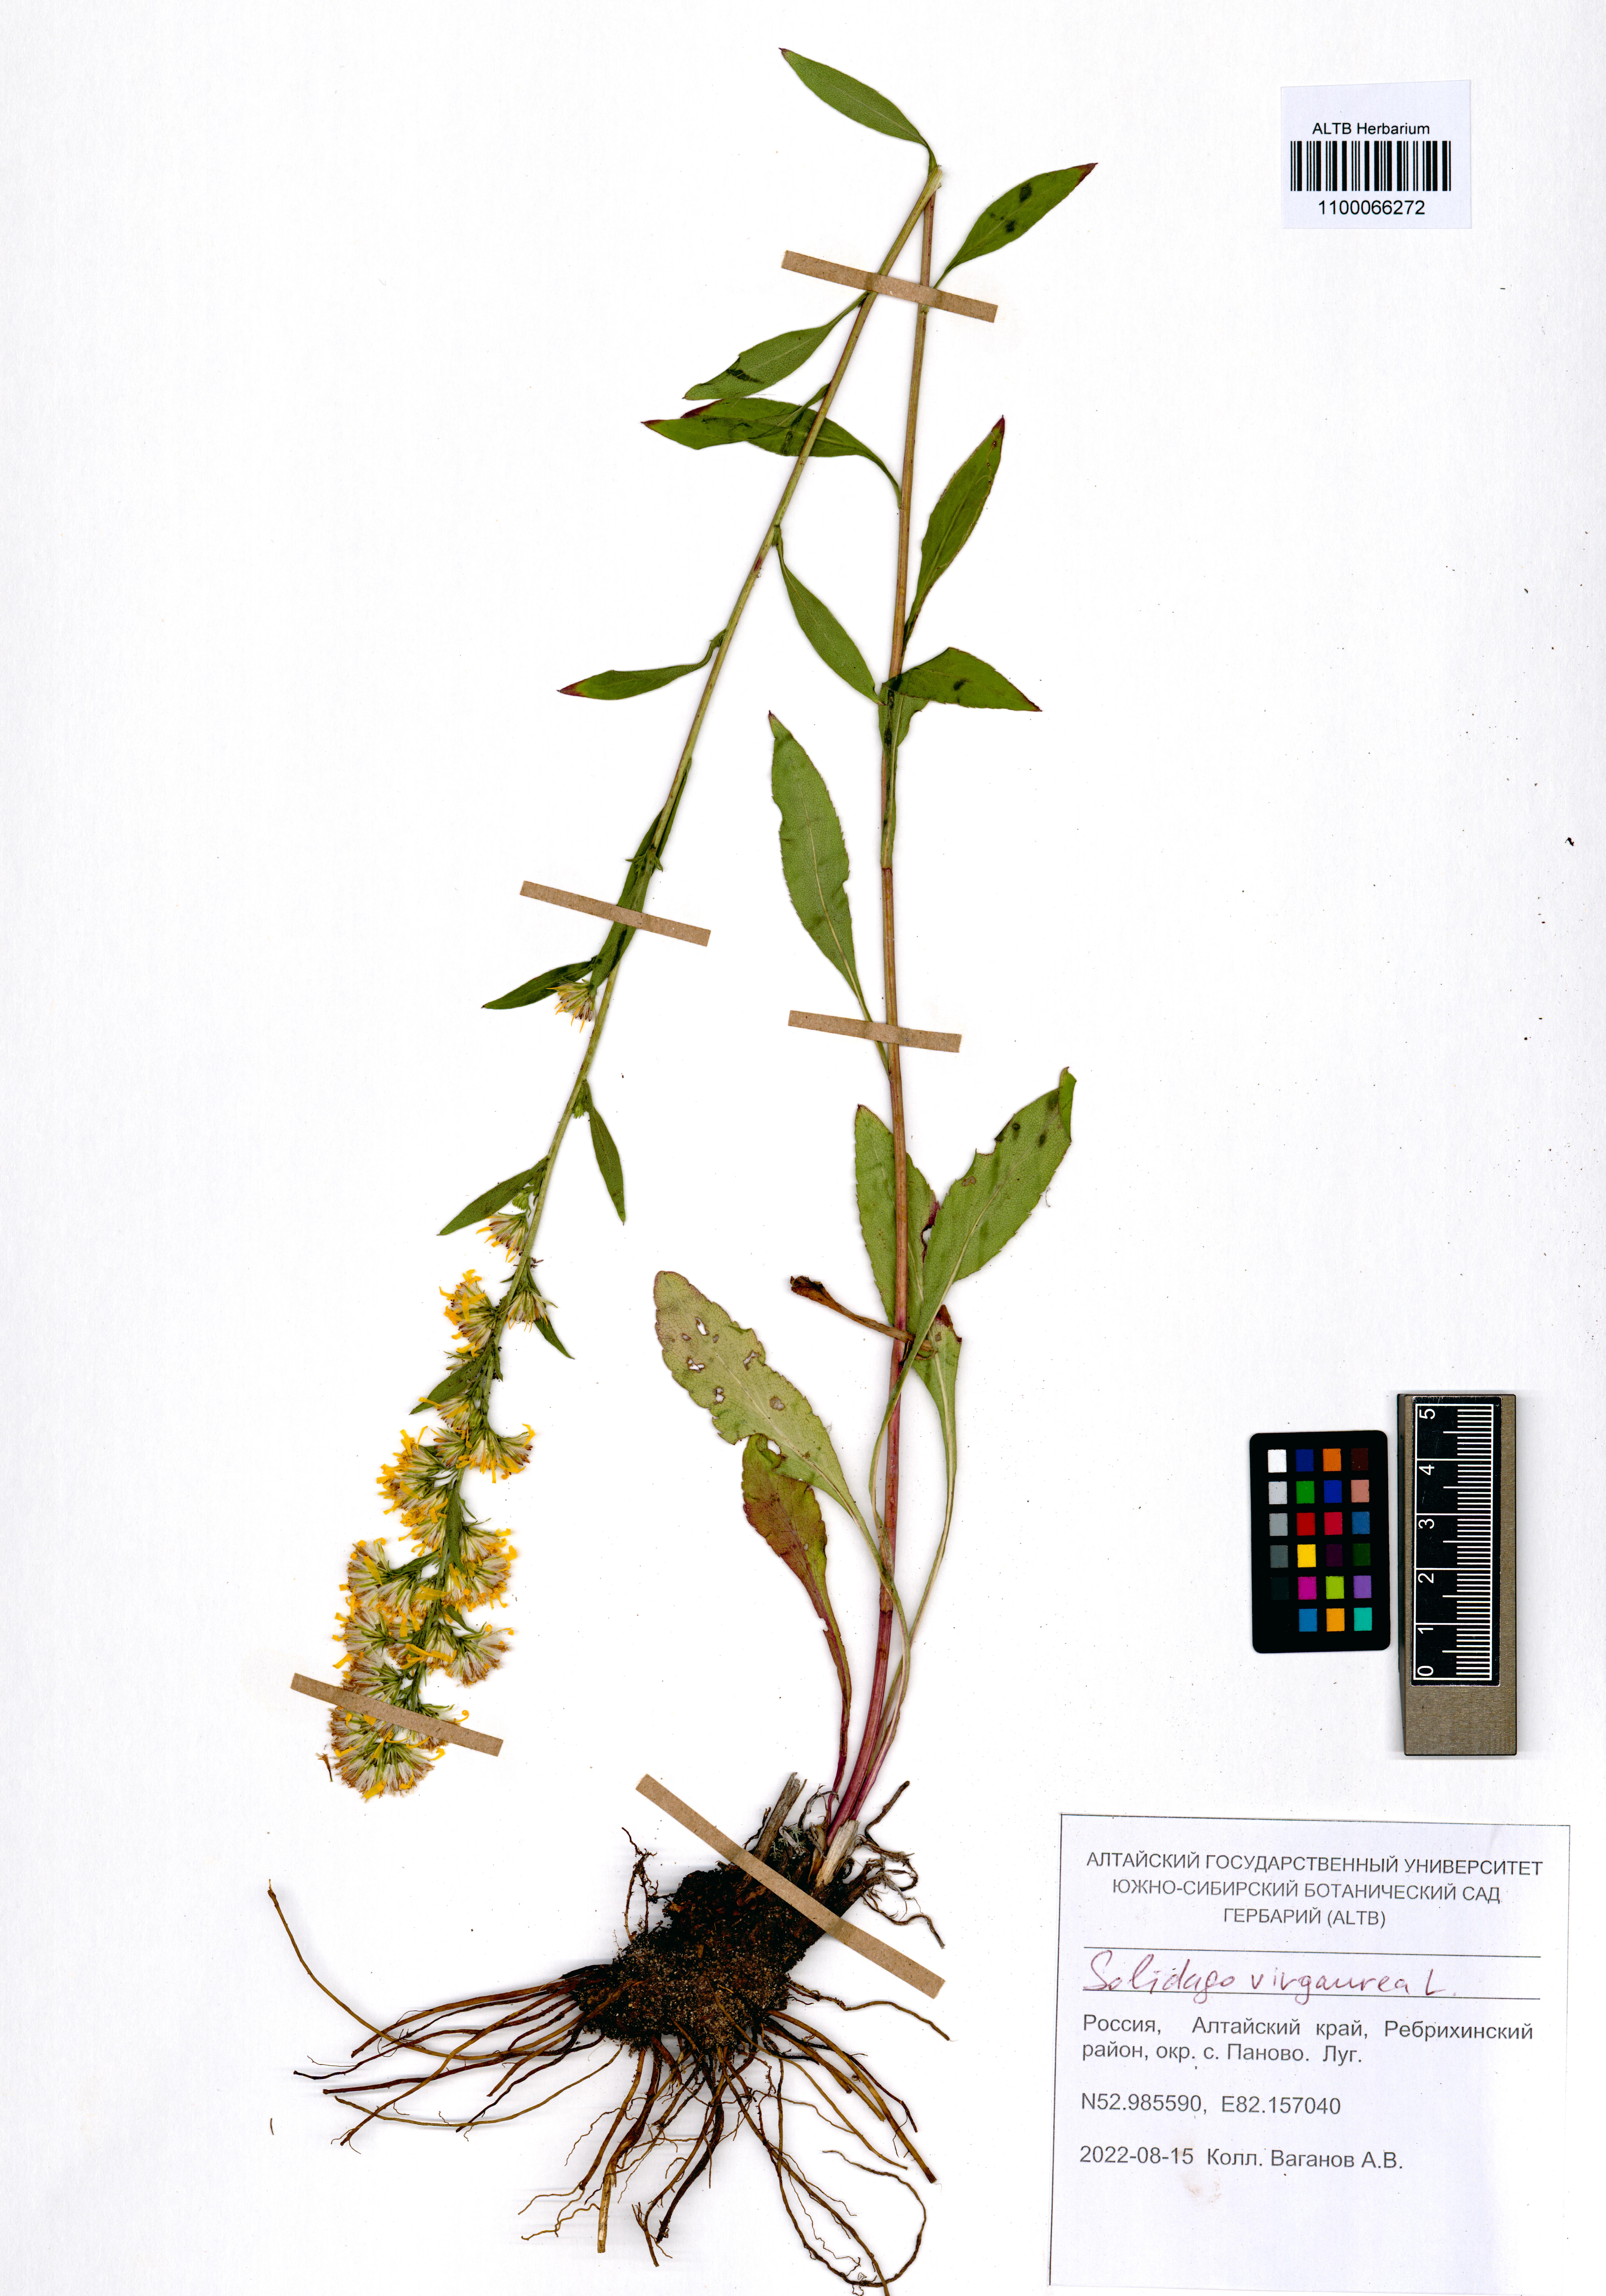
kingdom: Plantae
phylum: Tracheophyta
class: Magnoliopsida
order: Asterales
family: Asteraceae
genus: Solidago
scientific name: Solidago virgaurea
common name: Goldenrod
